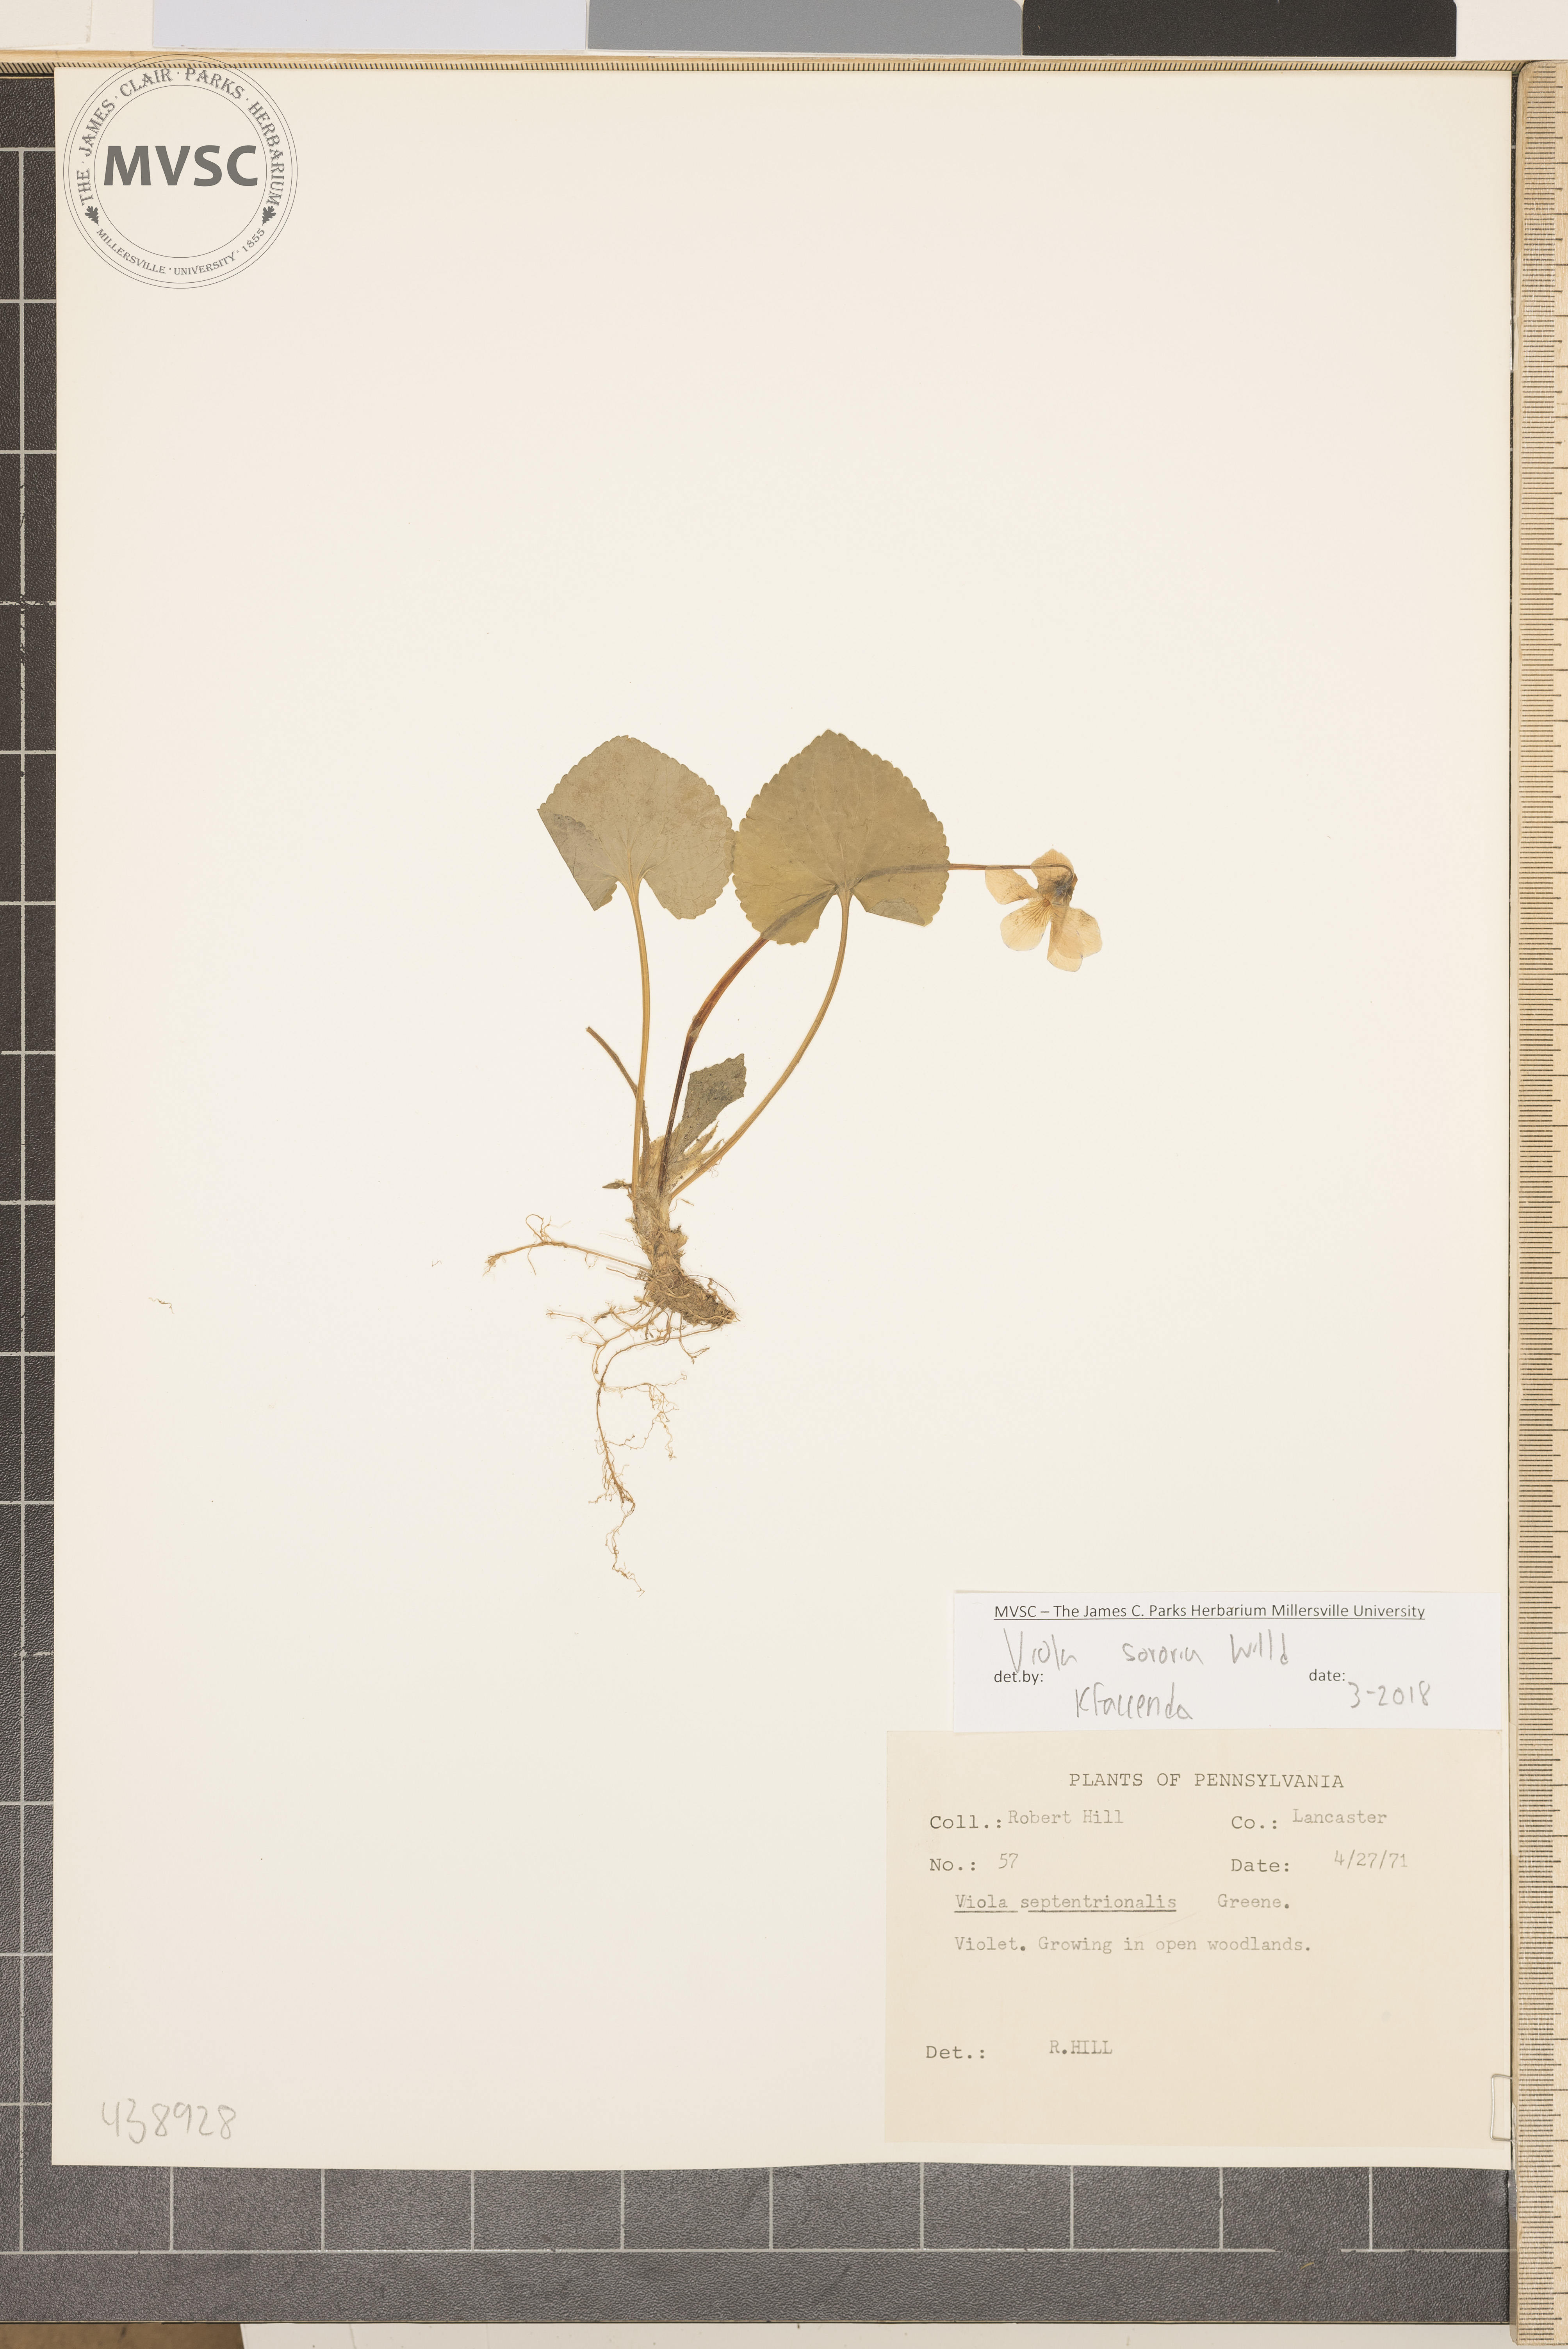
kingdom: Plantae
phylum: Tracheophyta
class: Magnoliopsida
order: Malpighiales
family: Violaceae
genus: Viola
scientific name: Viola sororia
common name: Violet
